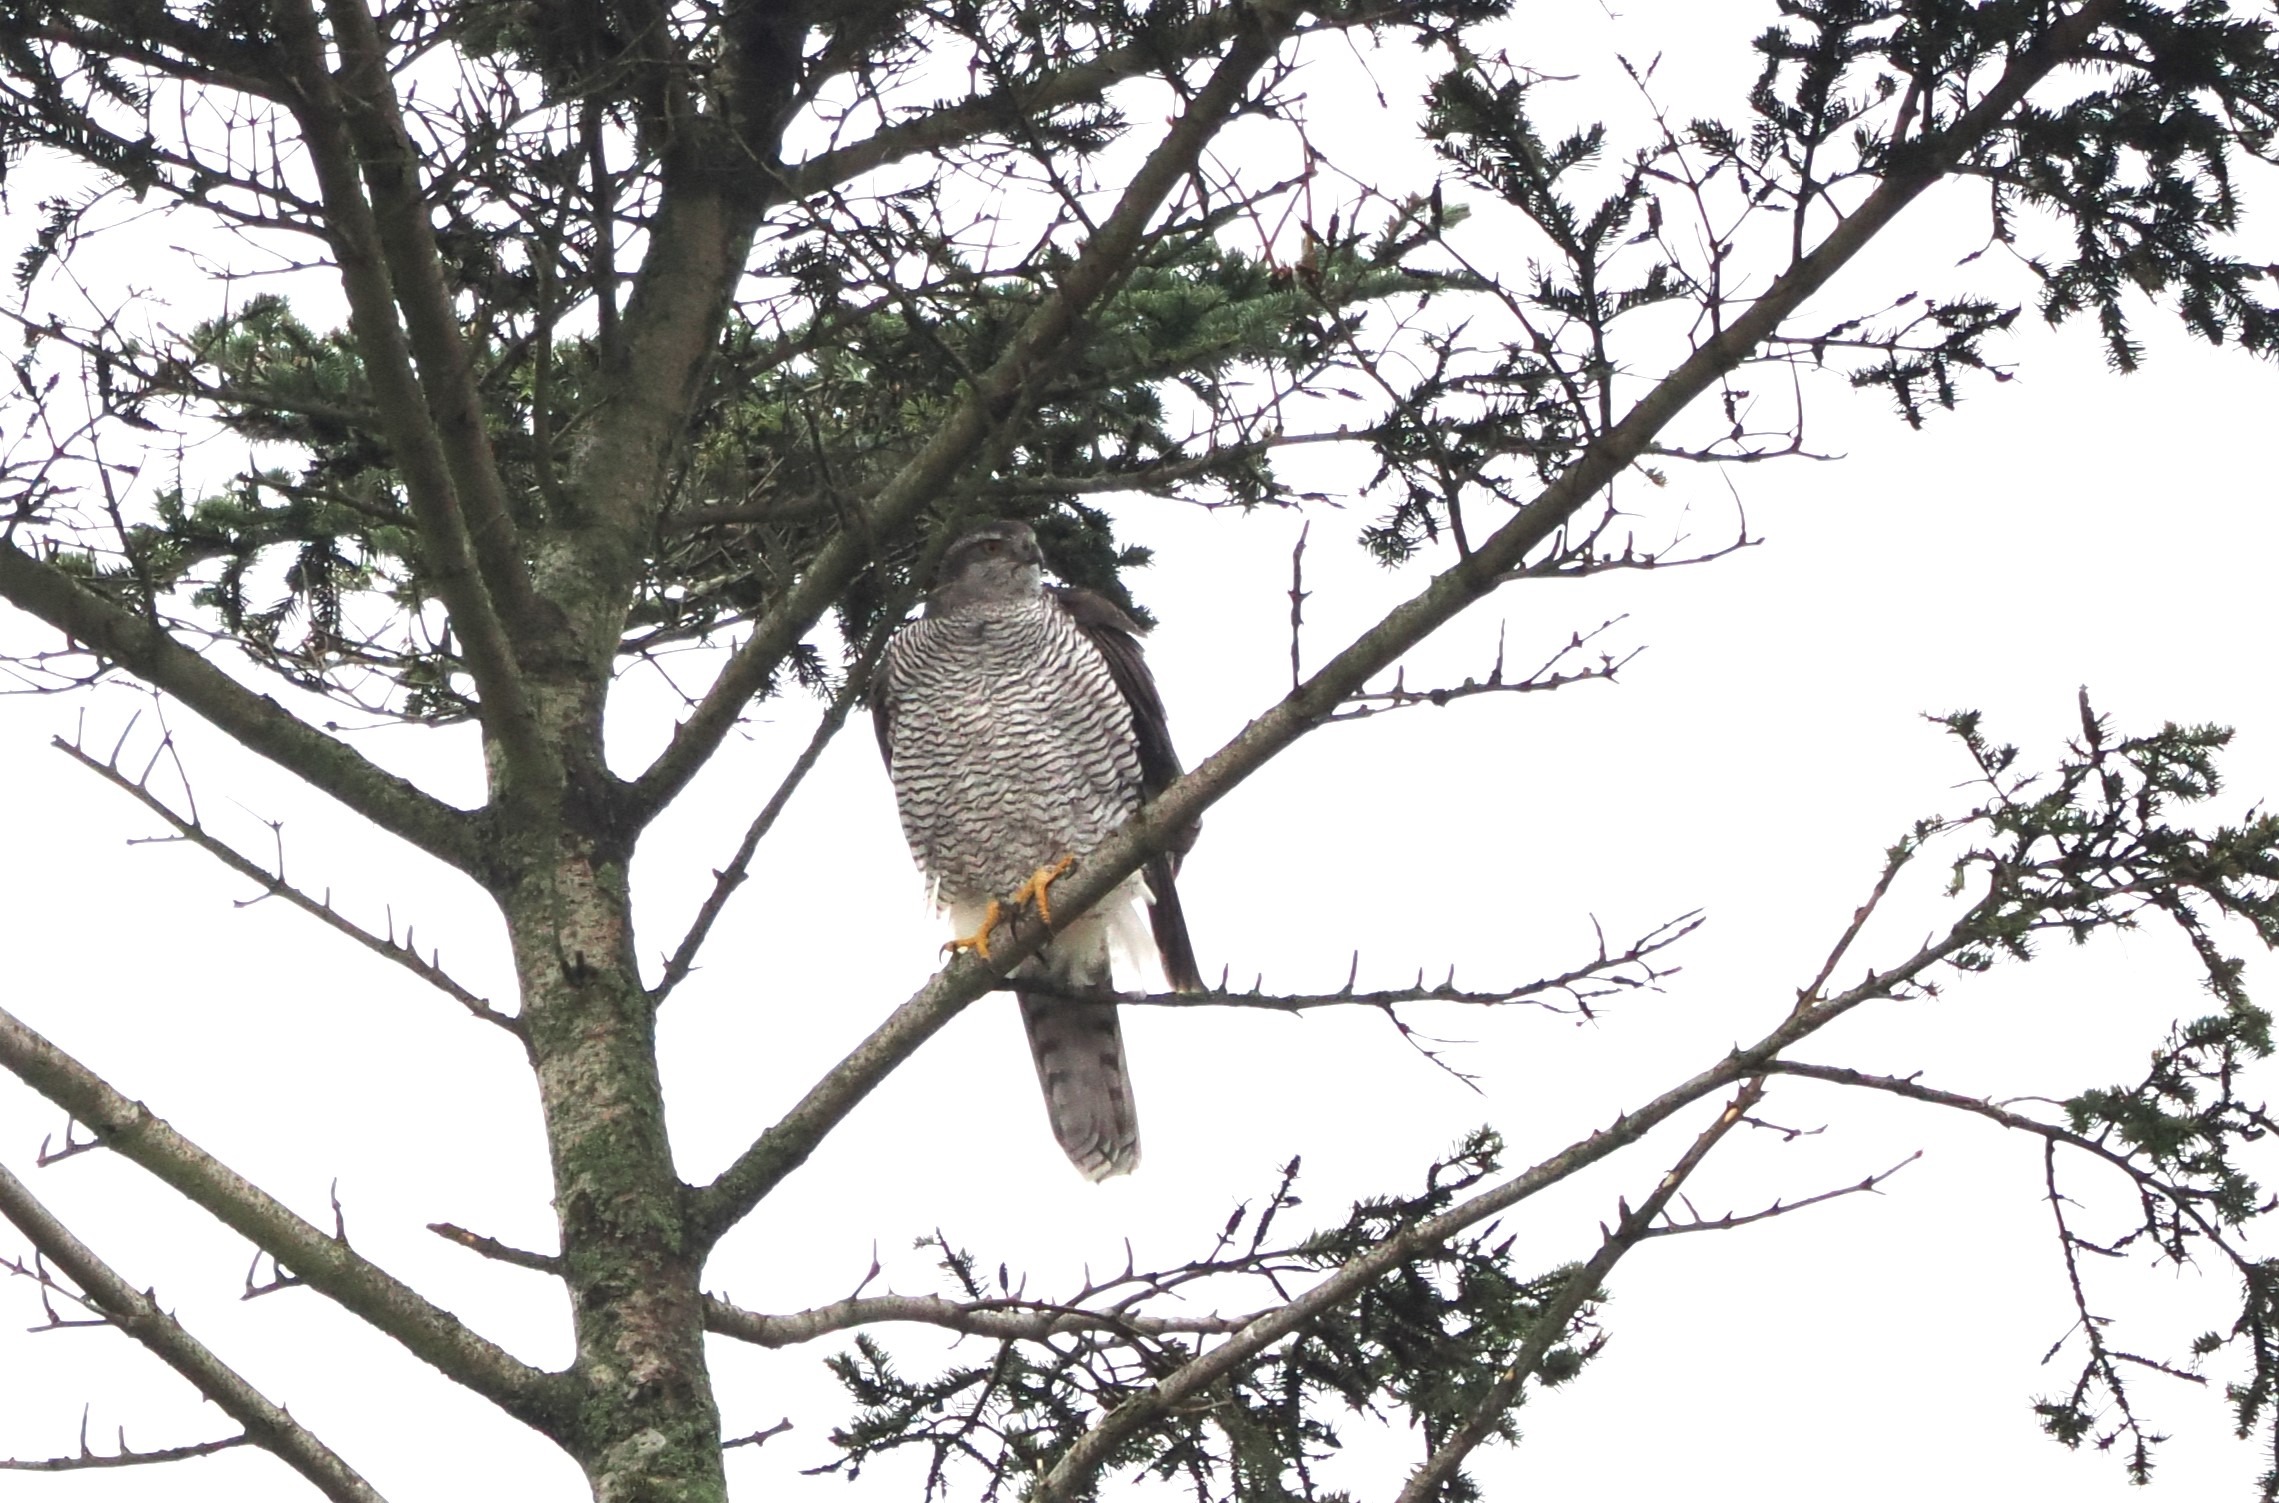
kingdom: Animalia
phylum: Chordata
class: Aves
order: Accipitriformes
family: Accipitridae
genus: Accipiter
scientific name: Accipiter gentilis
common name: Duehøg
